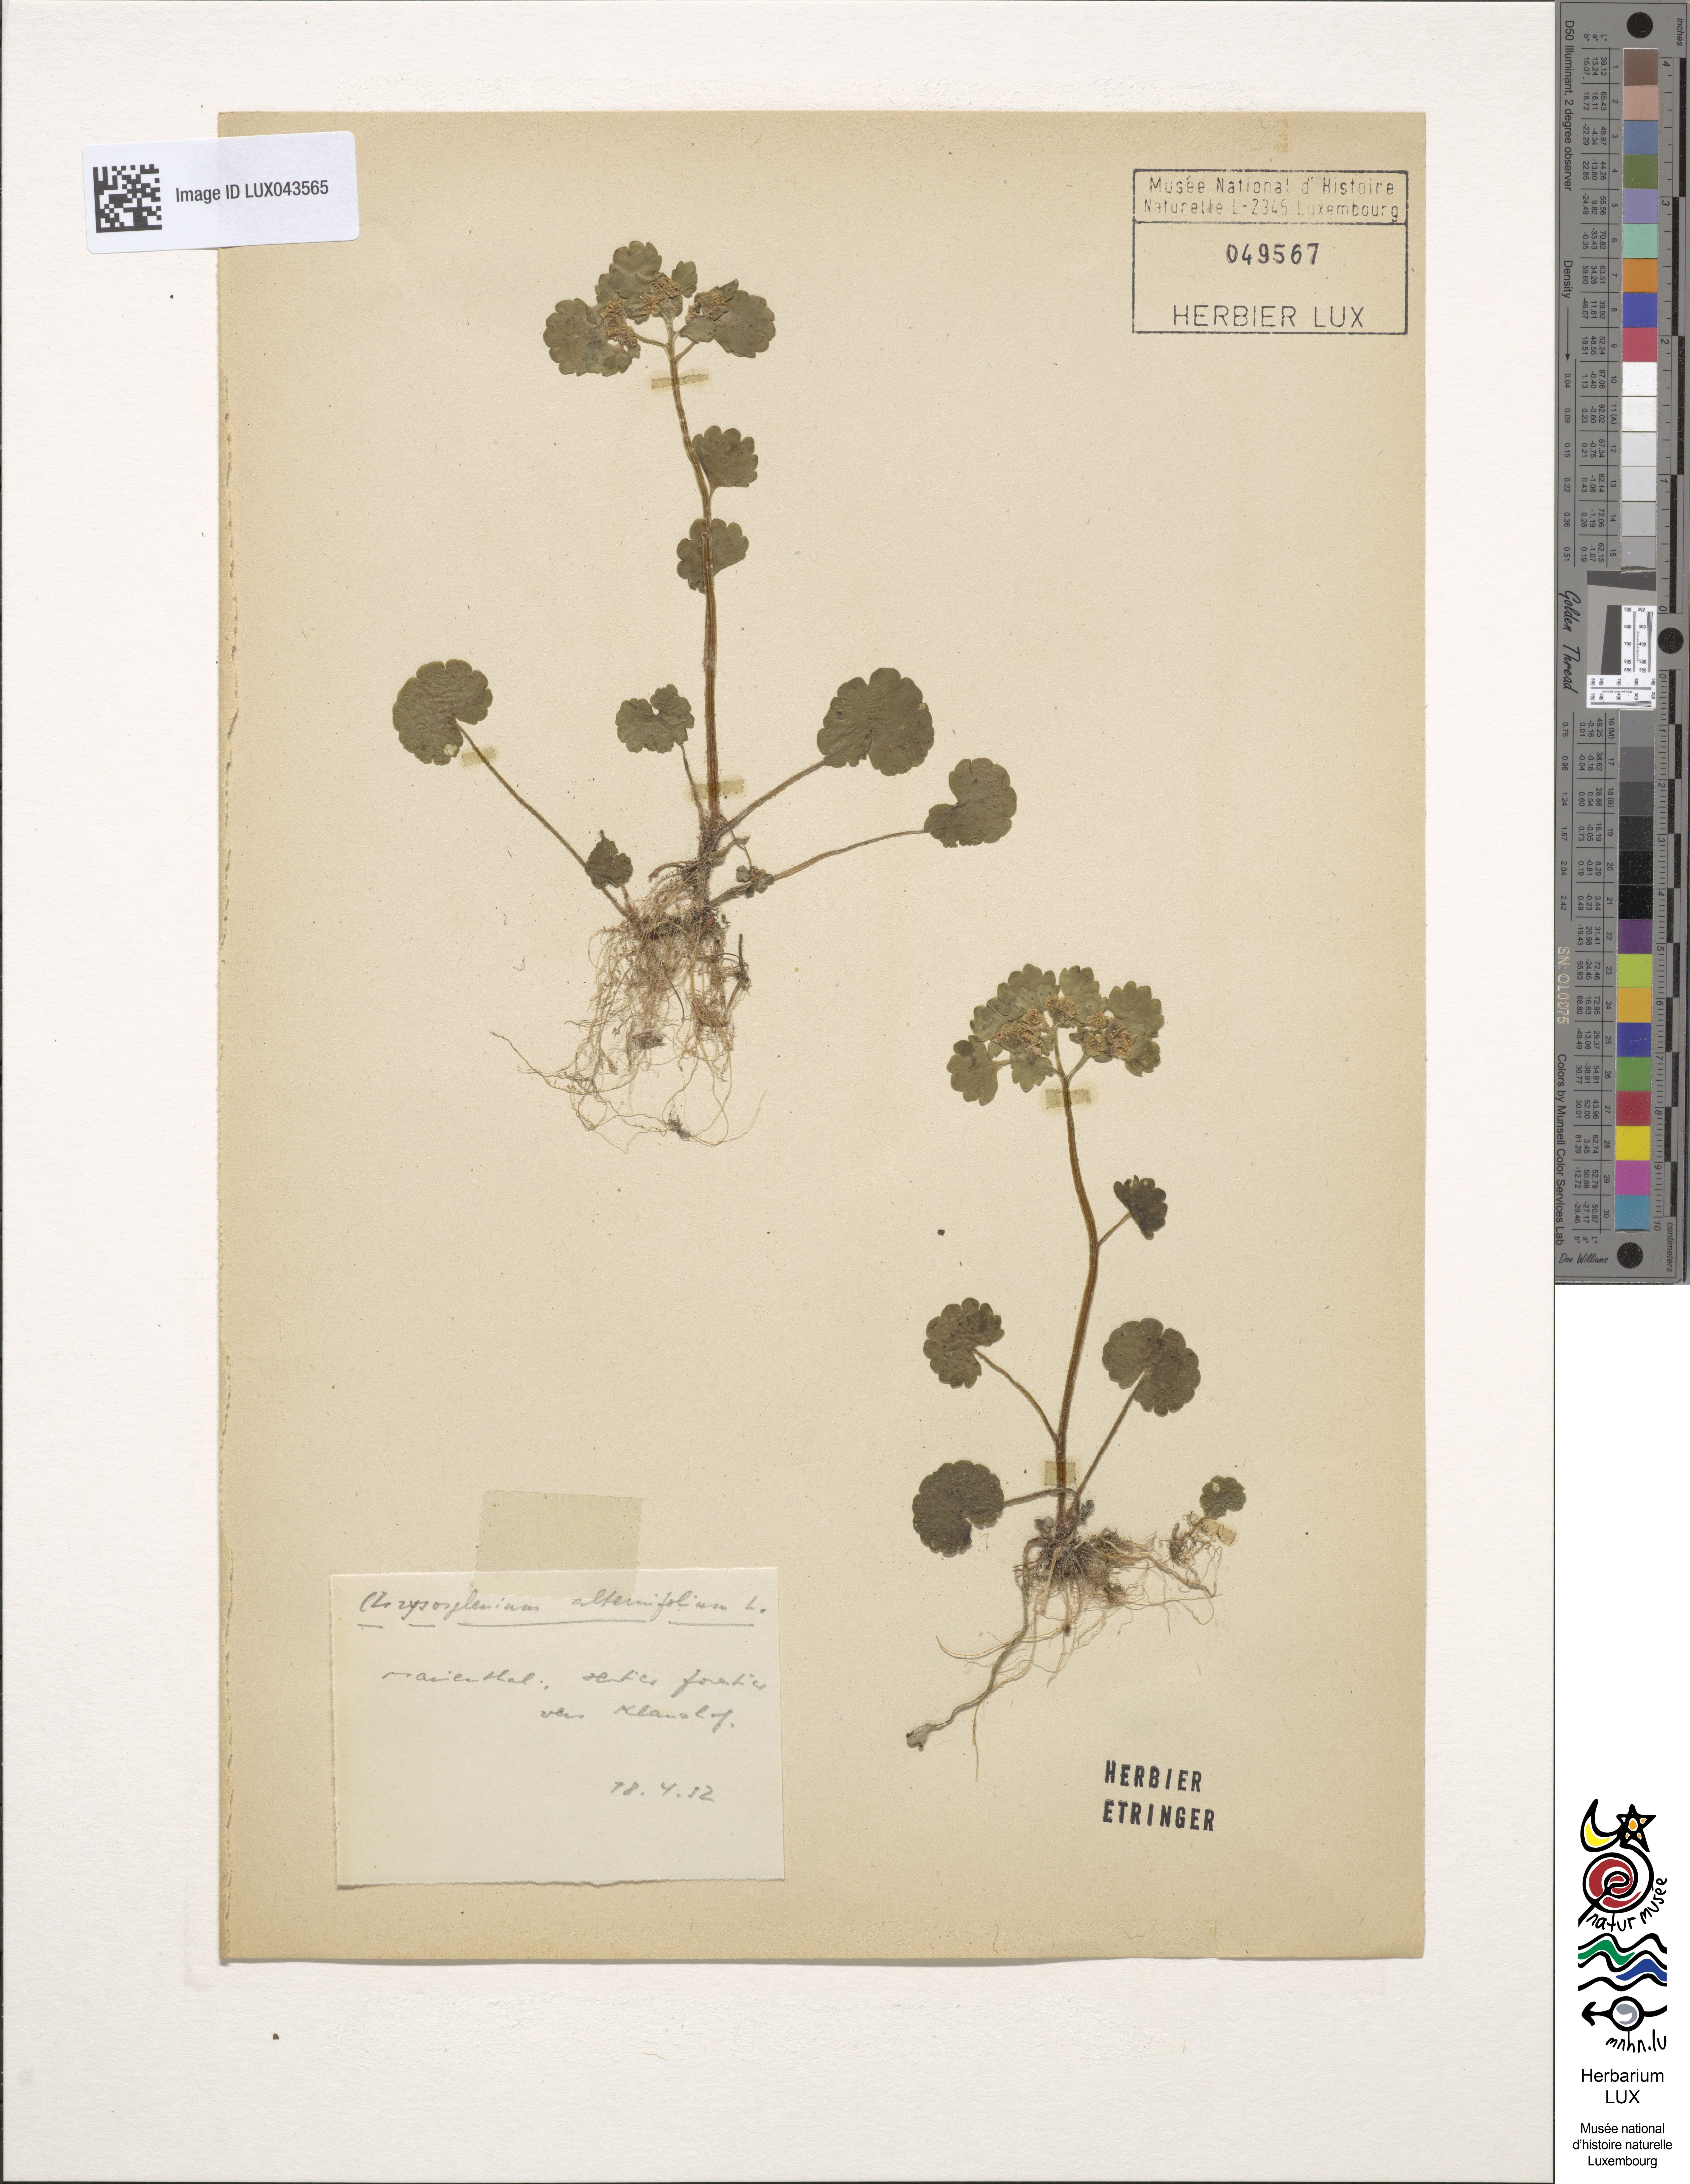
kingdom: Plantae
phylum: Tracheophyta
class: Magnoliopsida
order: Saxifragales
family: Saxifragaceae
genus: Chrysosplenium
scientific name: Chrysosplenium alternifolium
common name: Alternate-leaved golden-saxifrage
